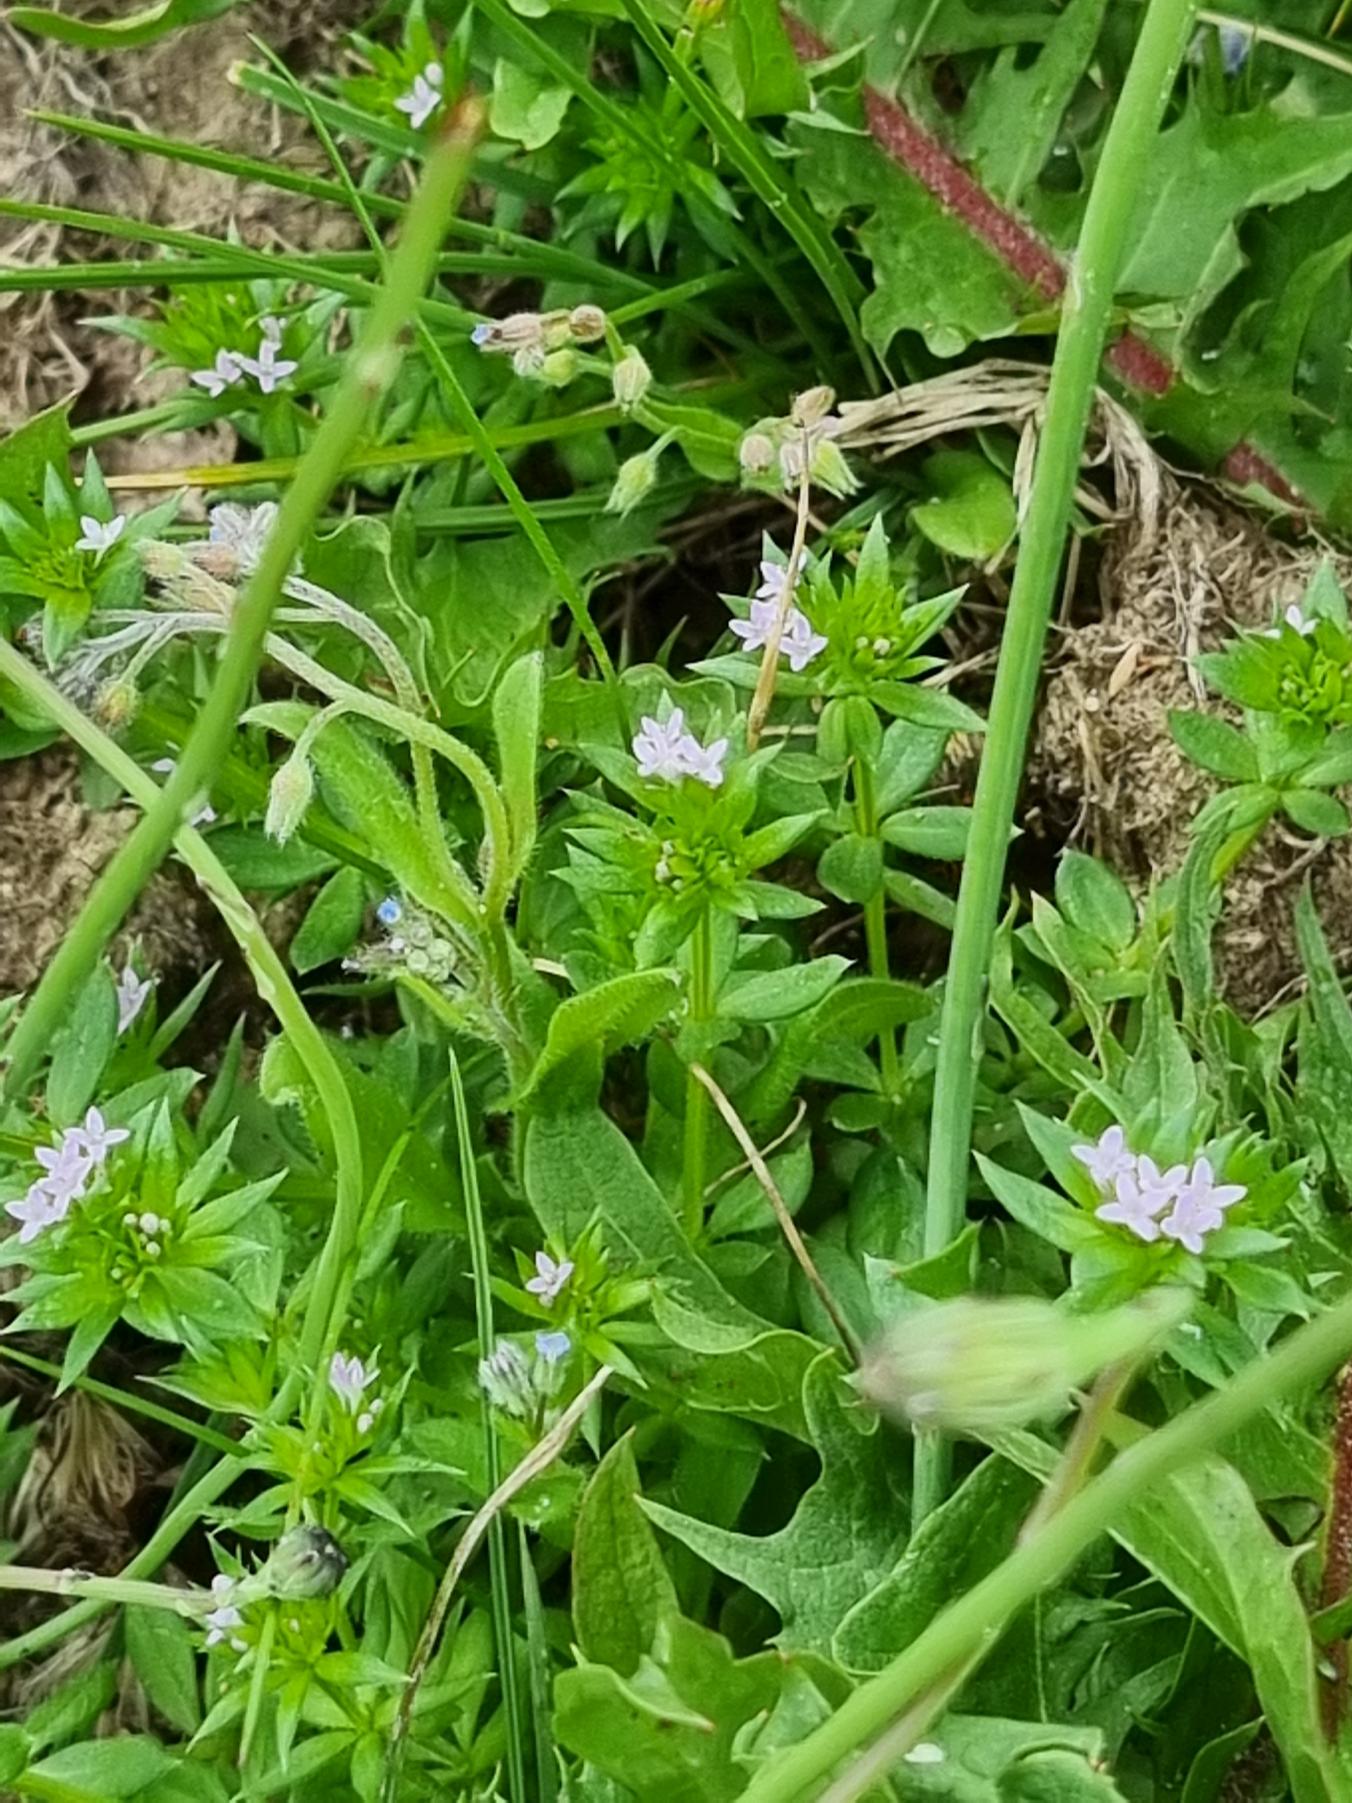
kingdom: Plantae
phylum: Tracheophyta
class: Magnoliopsida
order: Gentianales
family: Rubiaceae
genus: Sherardia
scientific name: Sherardia arvensis
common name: Blåstjerne
